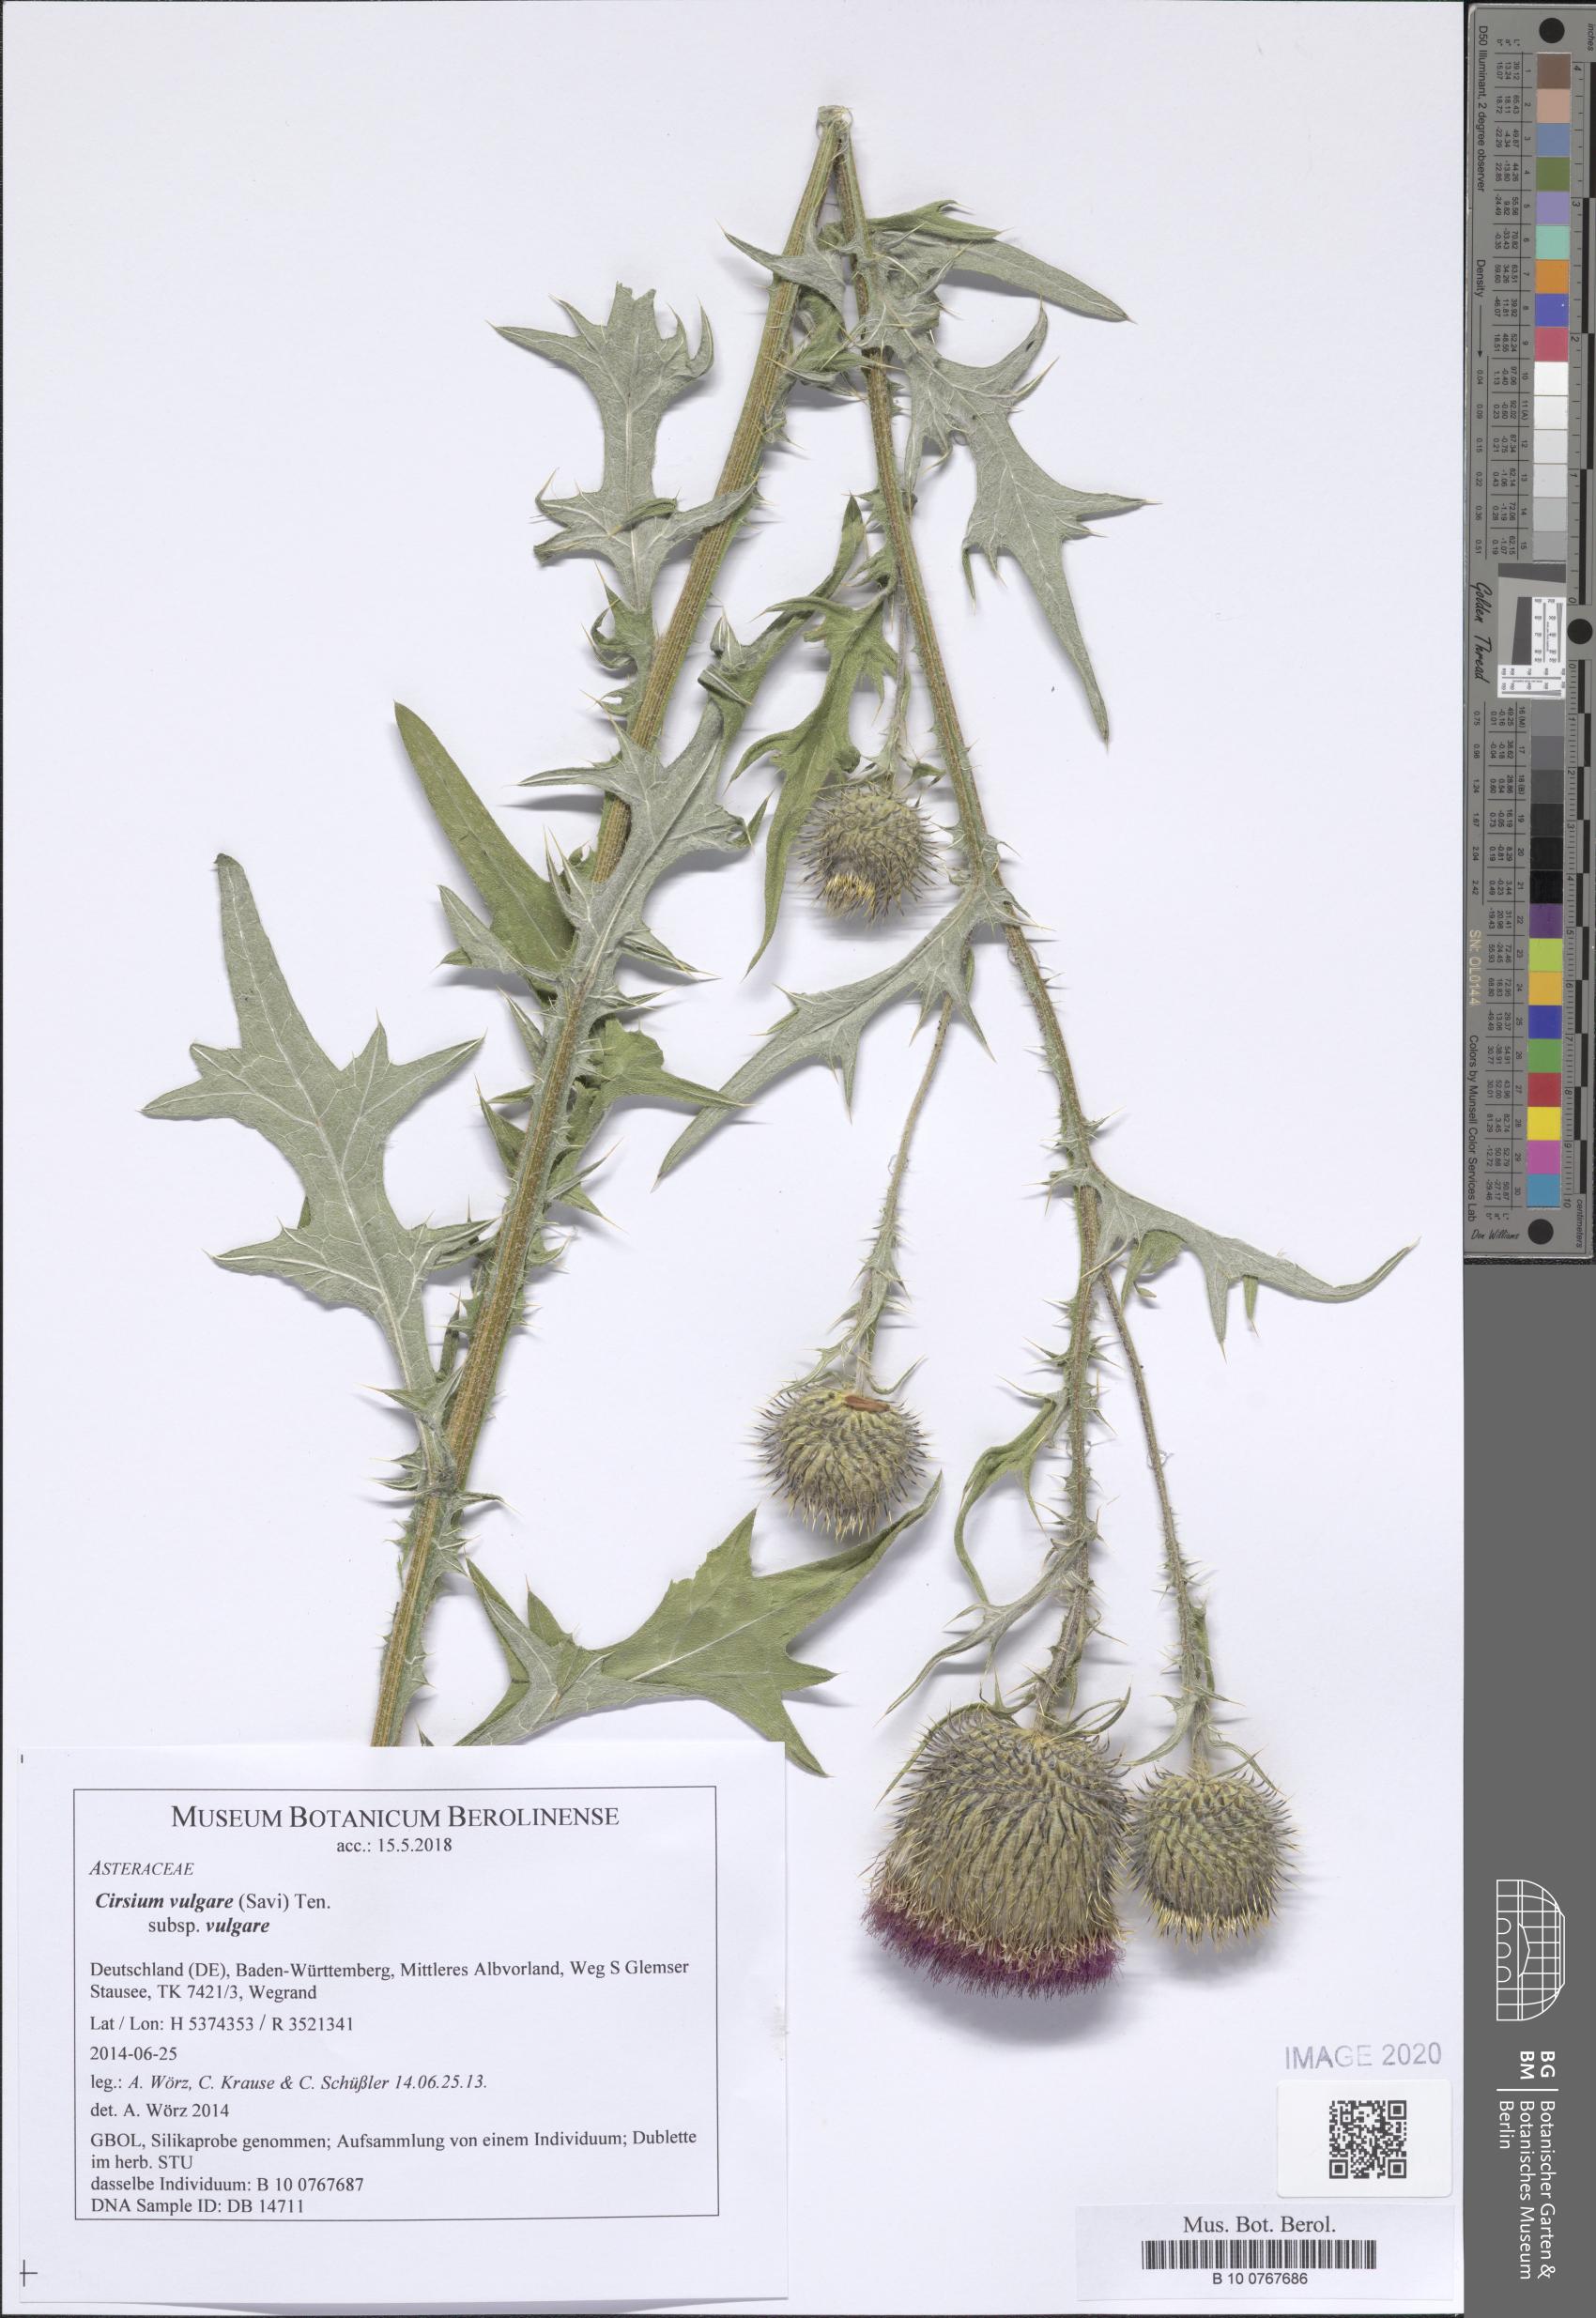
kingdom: Plantae
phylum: Tracheophyta
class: Magnoliopsida
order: Asterales
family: Asteraceae
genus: Cirsium
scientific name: Cirsium vulgare
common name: Bull thistle
